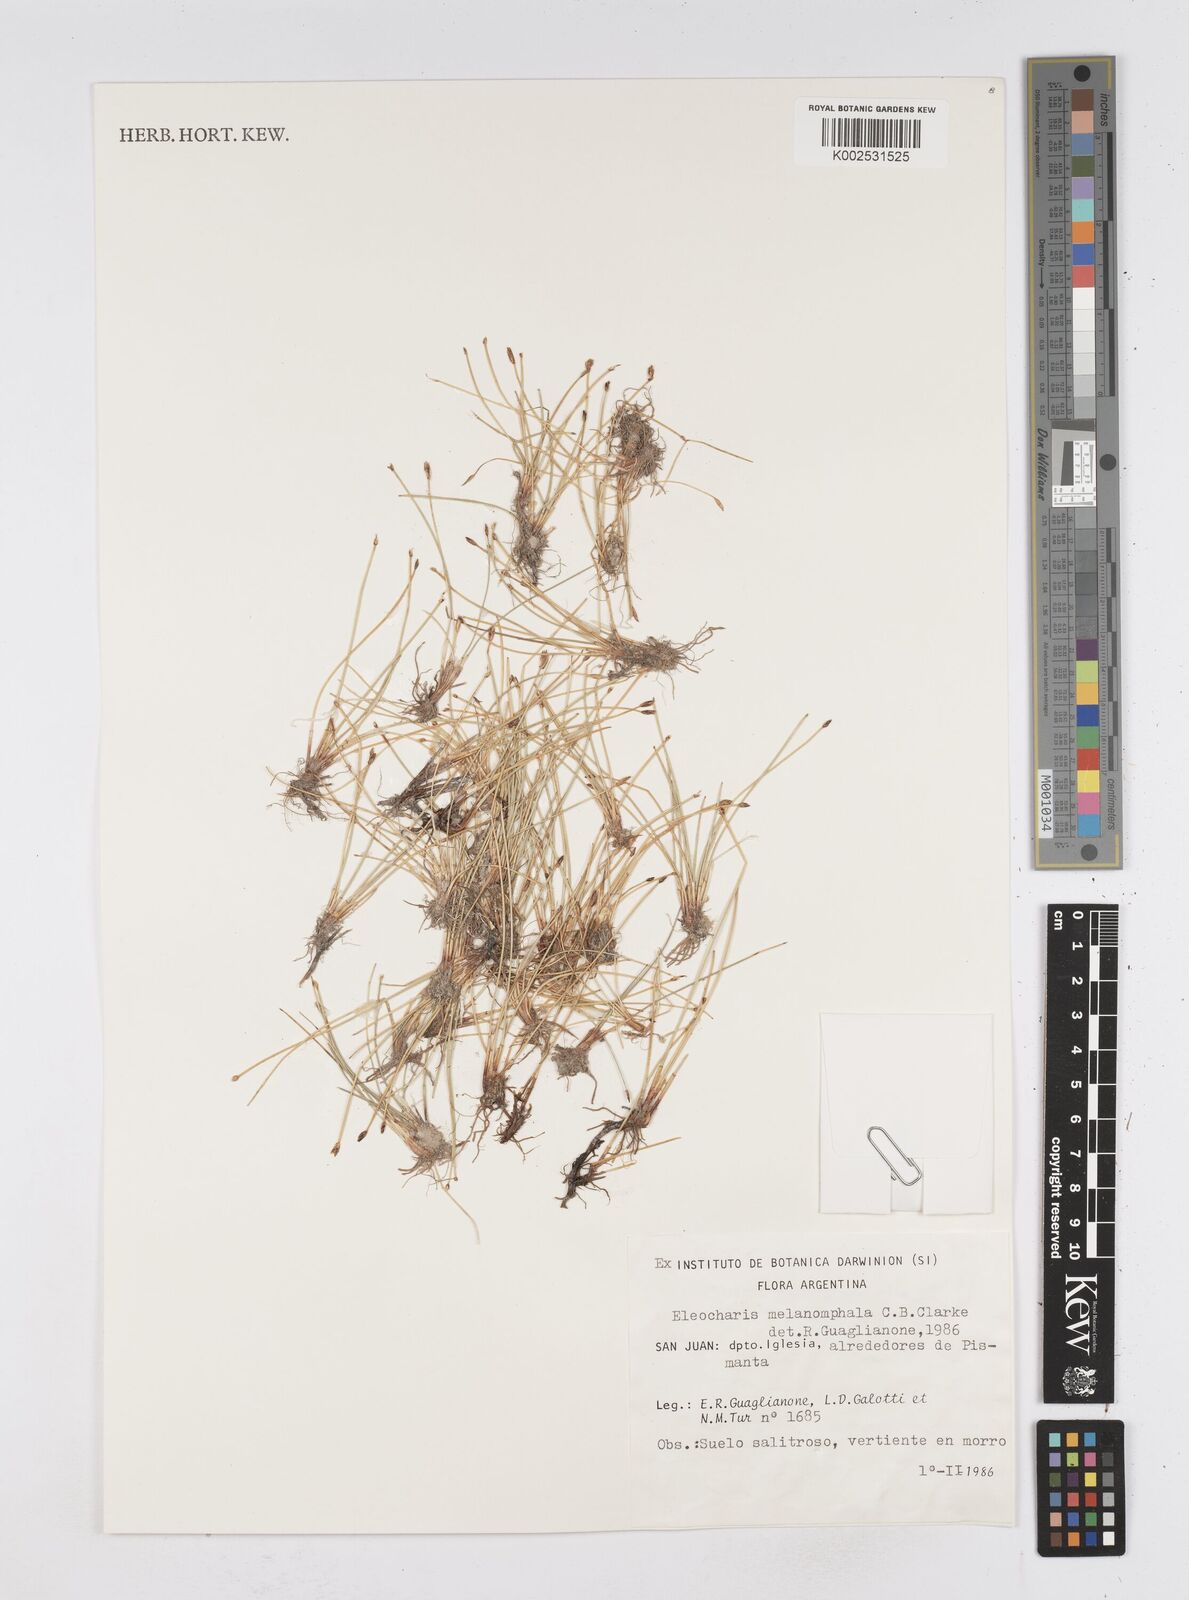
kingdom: Plantae
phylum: Tracheophyta
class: Liliopsida
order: Poales
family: Cyperaceae
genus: Eleocharis
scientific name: Eleocharis albibracteata
